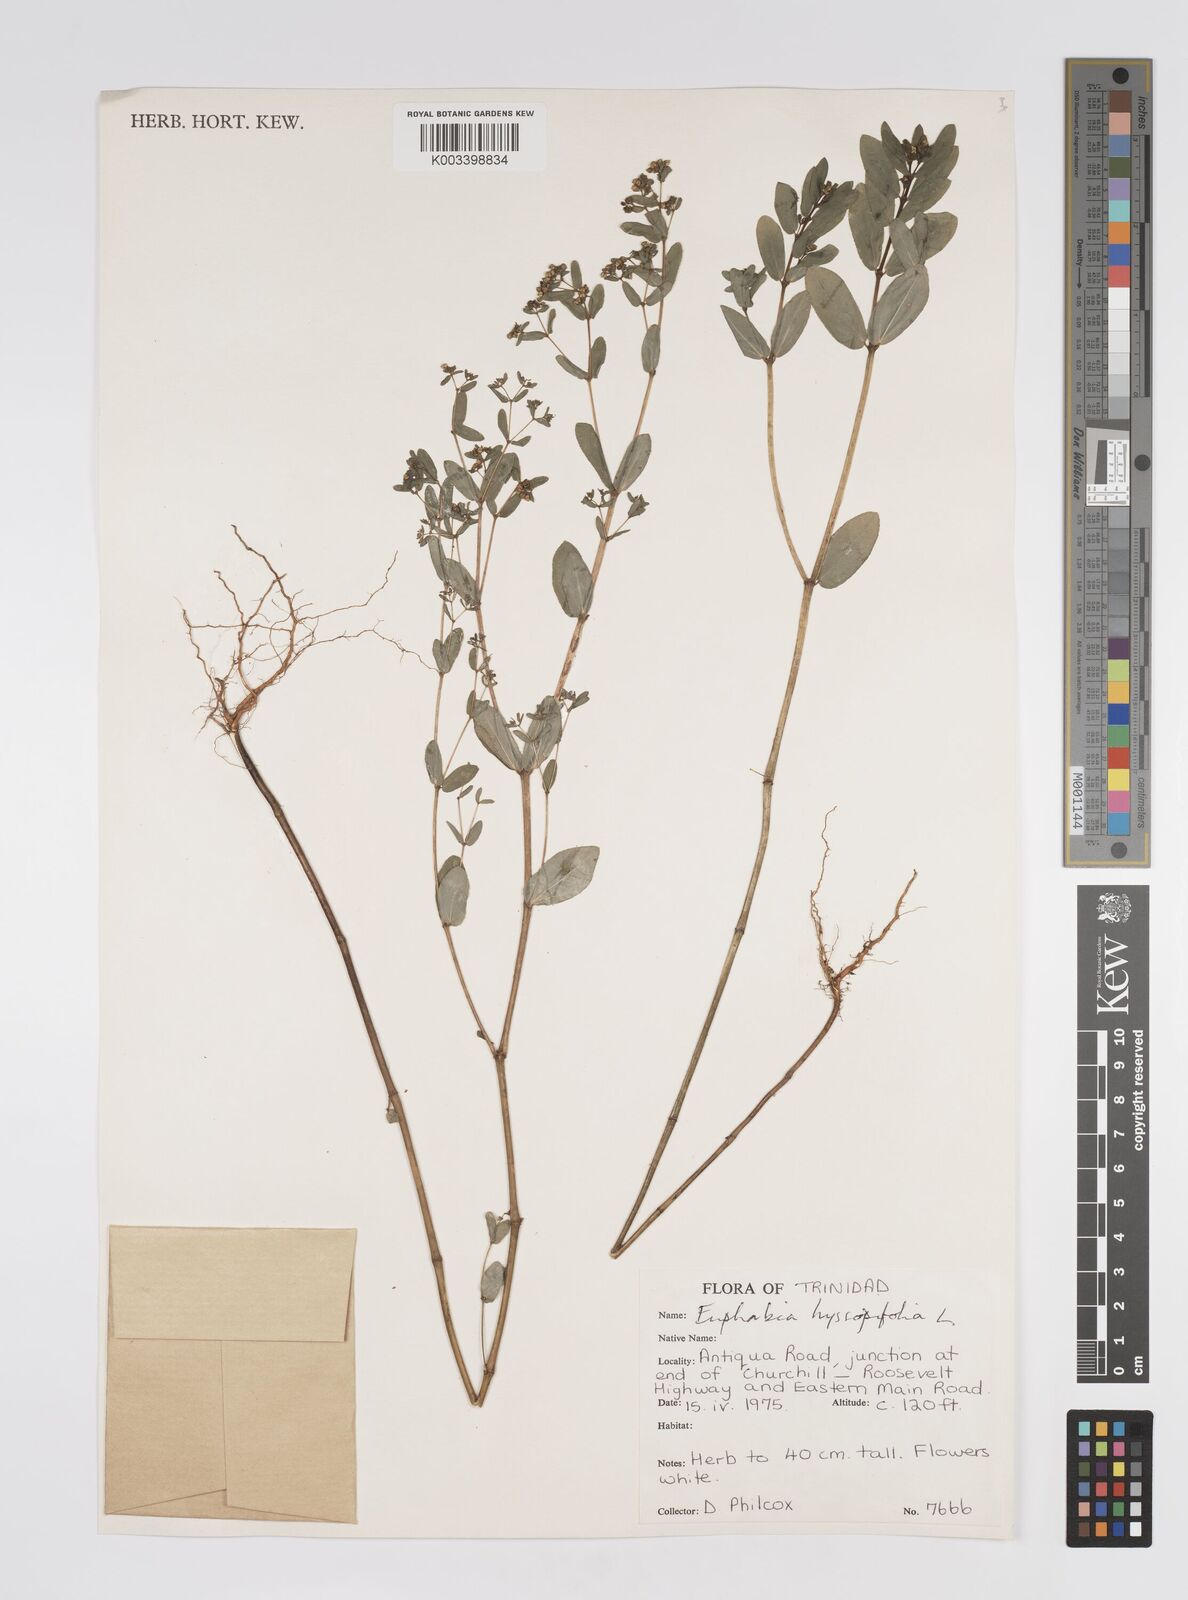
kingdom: Plantae
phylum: Tracheophyta
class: Magnoliopsida
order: Malpighiales
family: Euphorbiaceae
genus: Euphorbia
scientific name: Euphorbia hyssopifolia
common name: Hyssopleaf sandmat
